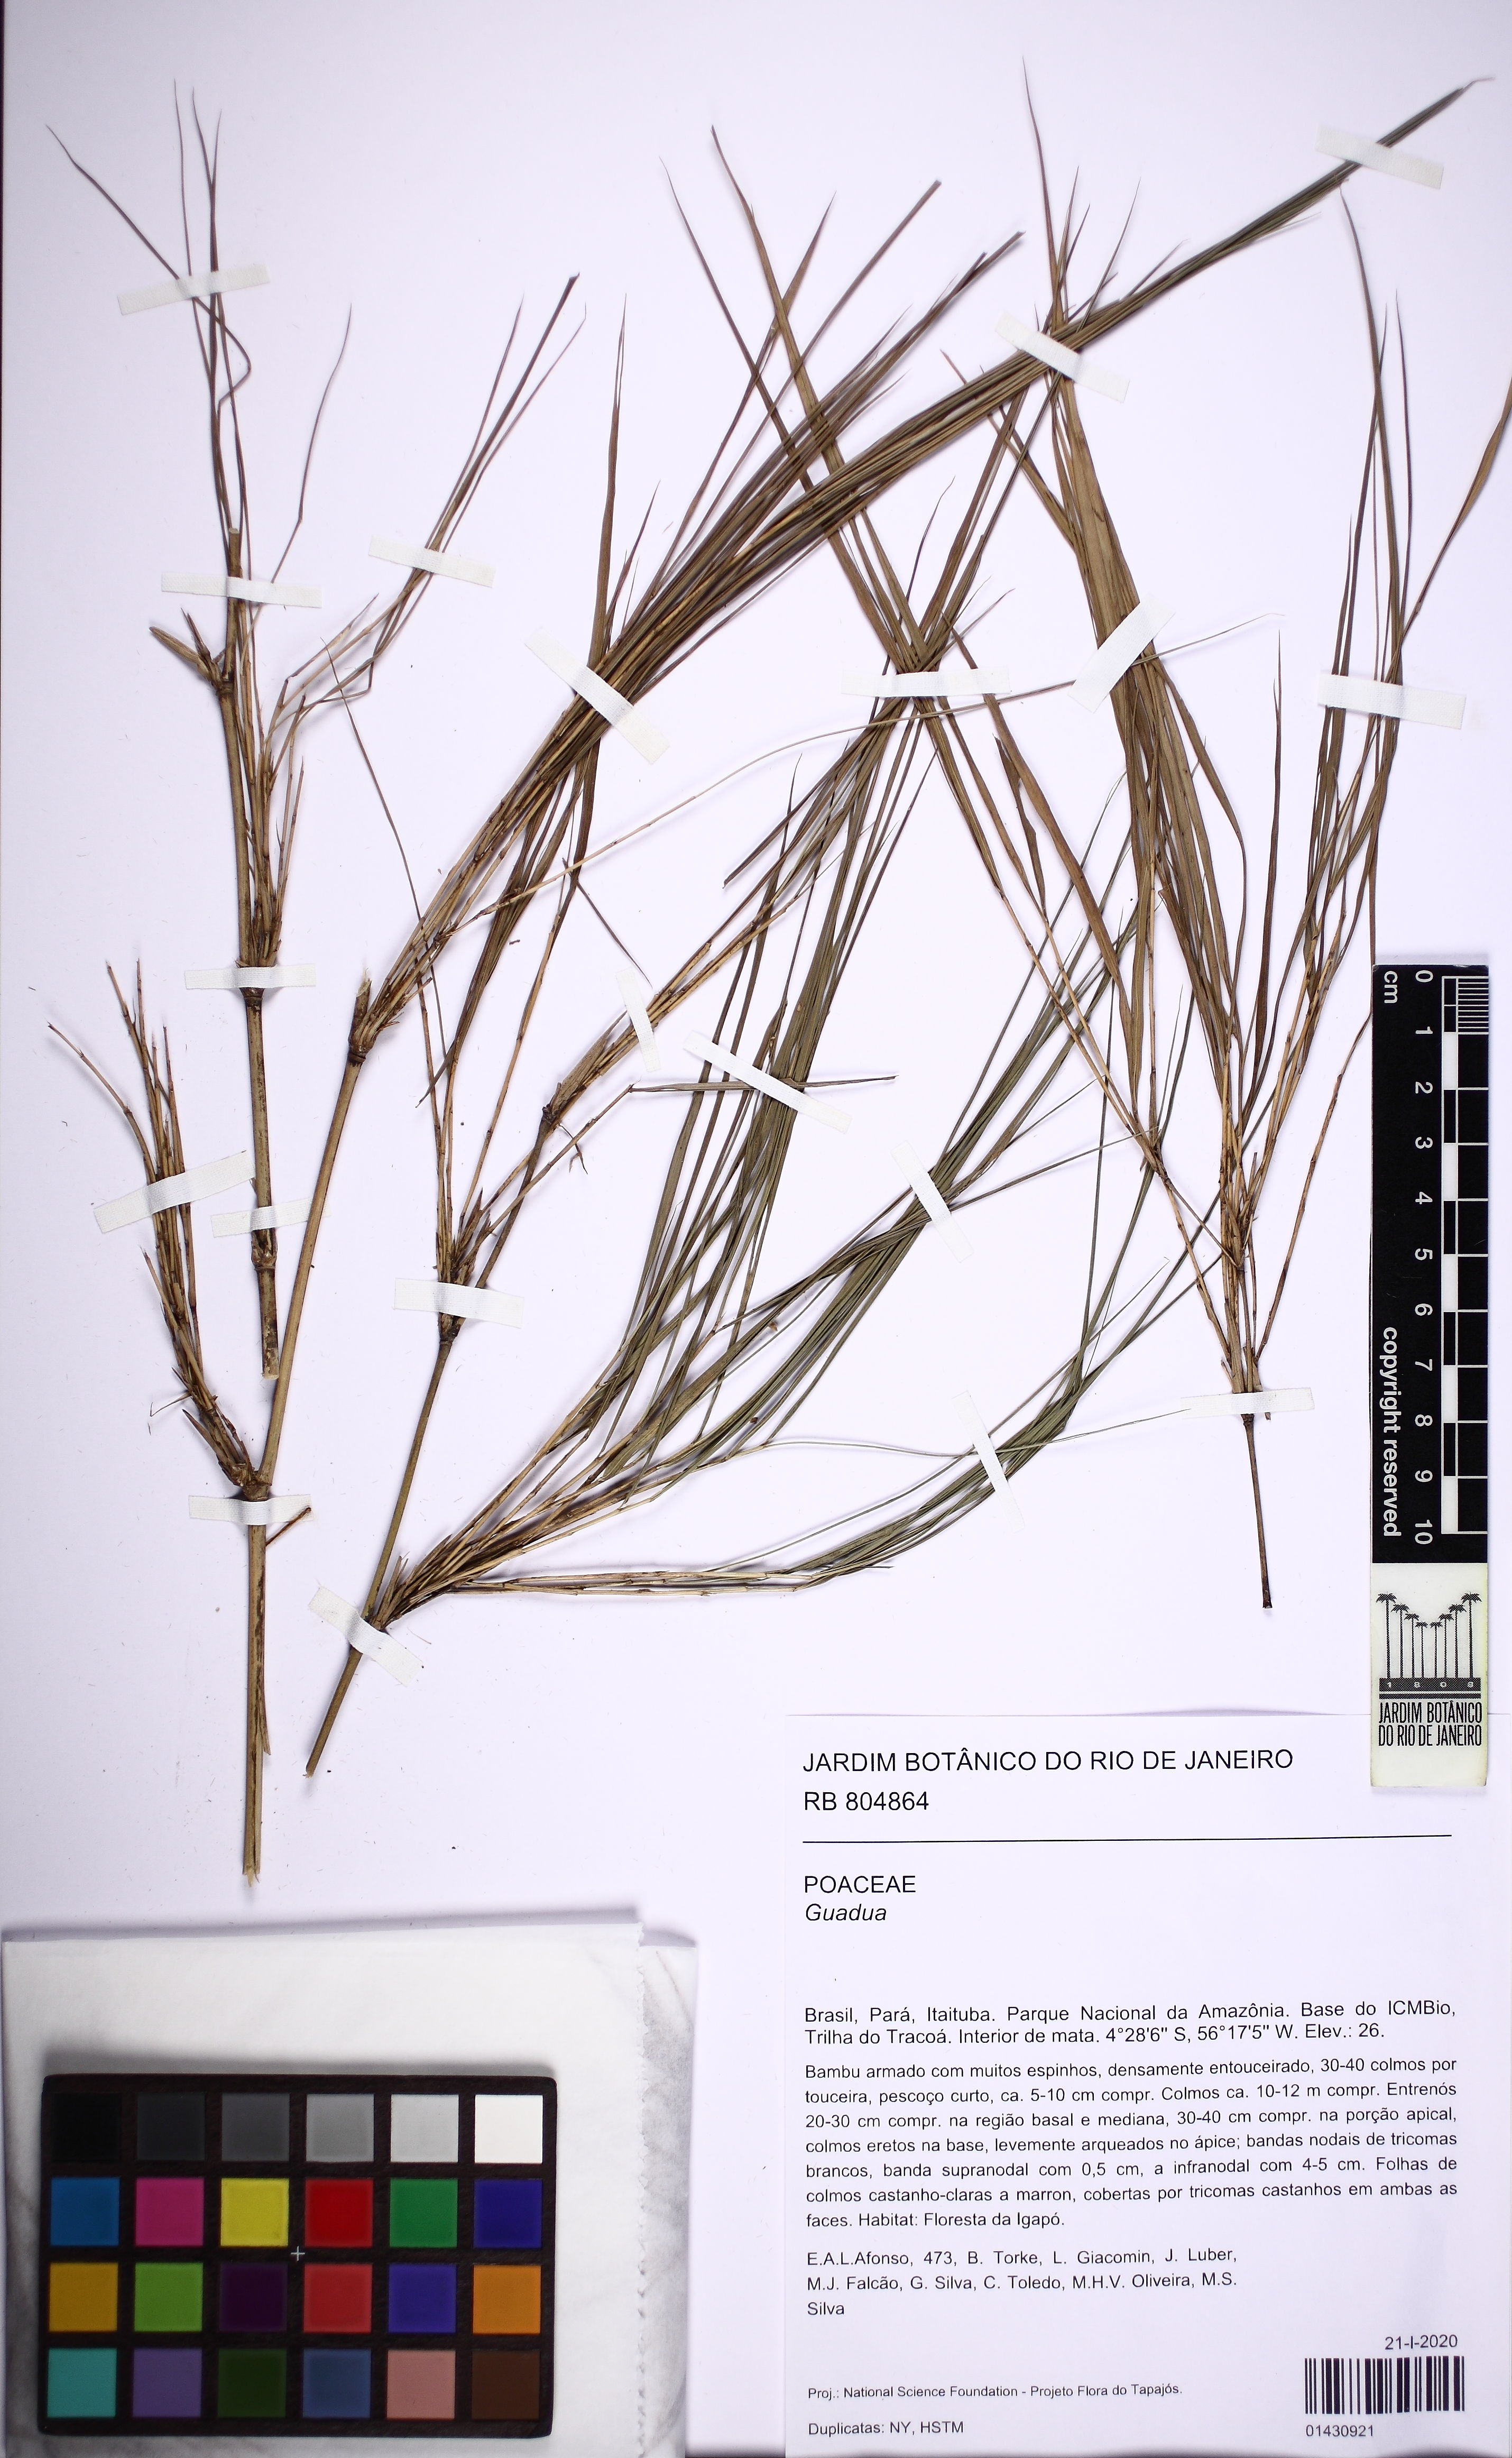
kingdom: Plantae
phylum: Tracheophyta
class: Liliopsida
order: Poales
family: Poaceae
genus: Guadua
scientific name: Guadua superba
